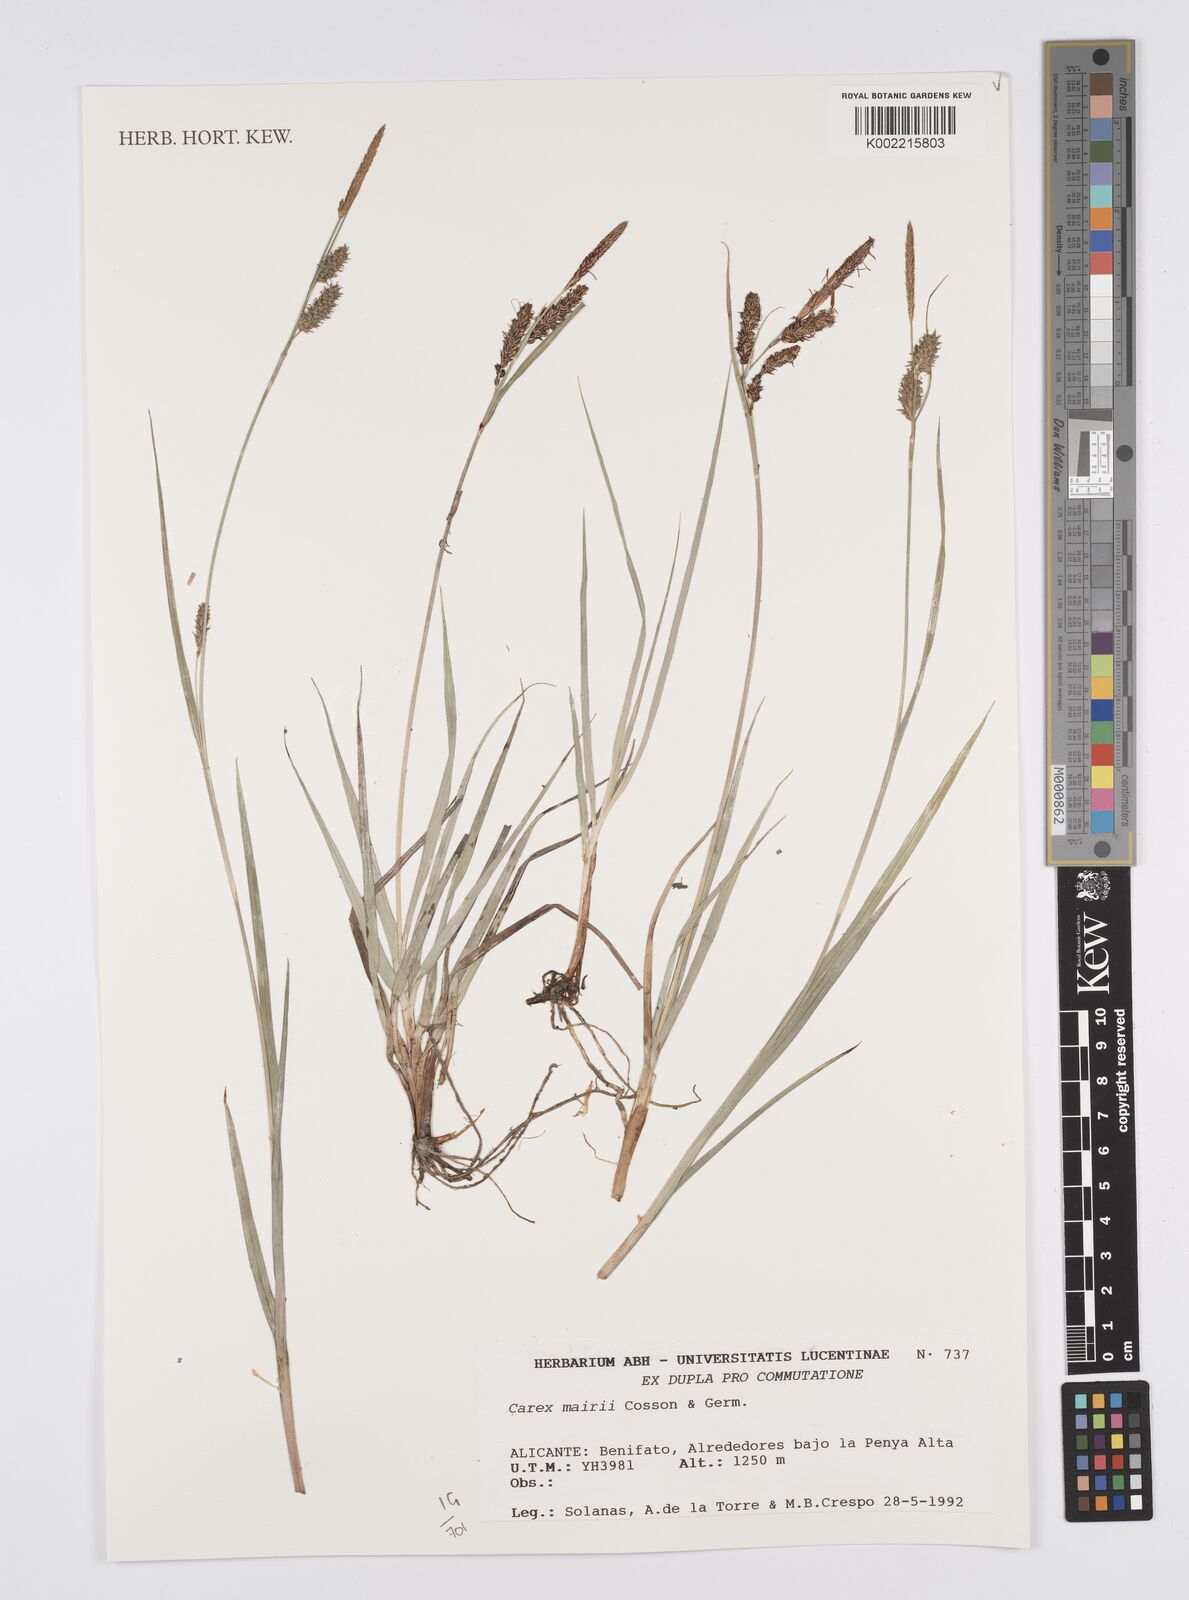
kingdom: Plantae
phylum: Tracheophyta
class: Liliopsida
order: Poales
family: Cyperaceae
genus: Carex
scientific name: Carex
